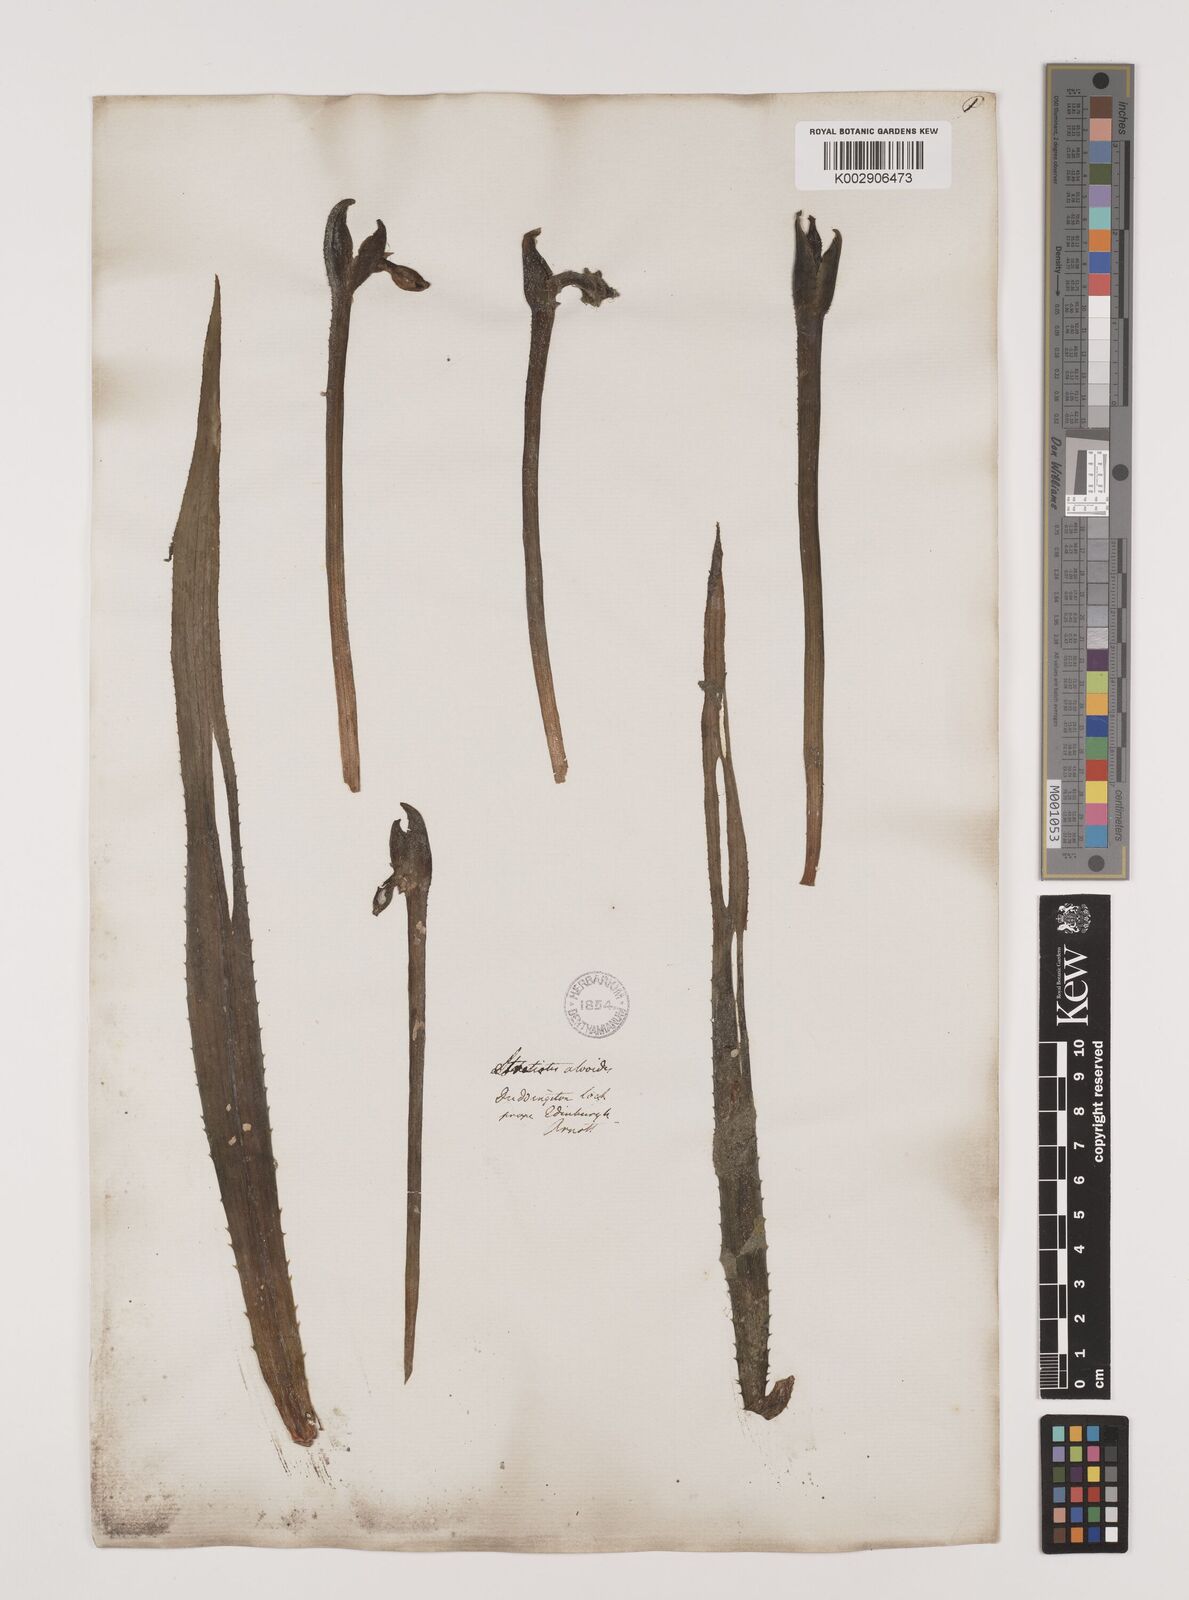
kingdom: Plantae
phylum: Tracheophyta
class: Liliopsida
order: Alismatales
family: Hydrocharitaceae
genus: Stratiotes
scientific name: Stratiotes aloides
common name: Water-soldier
